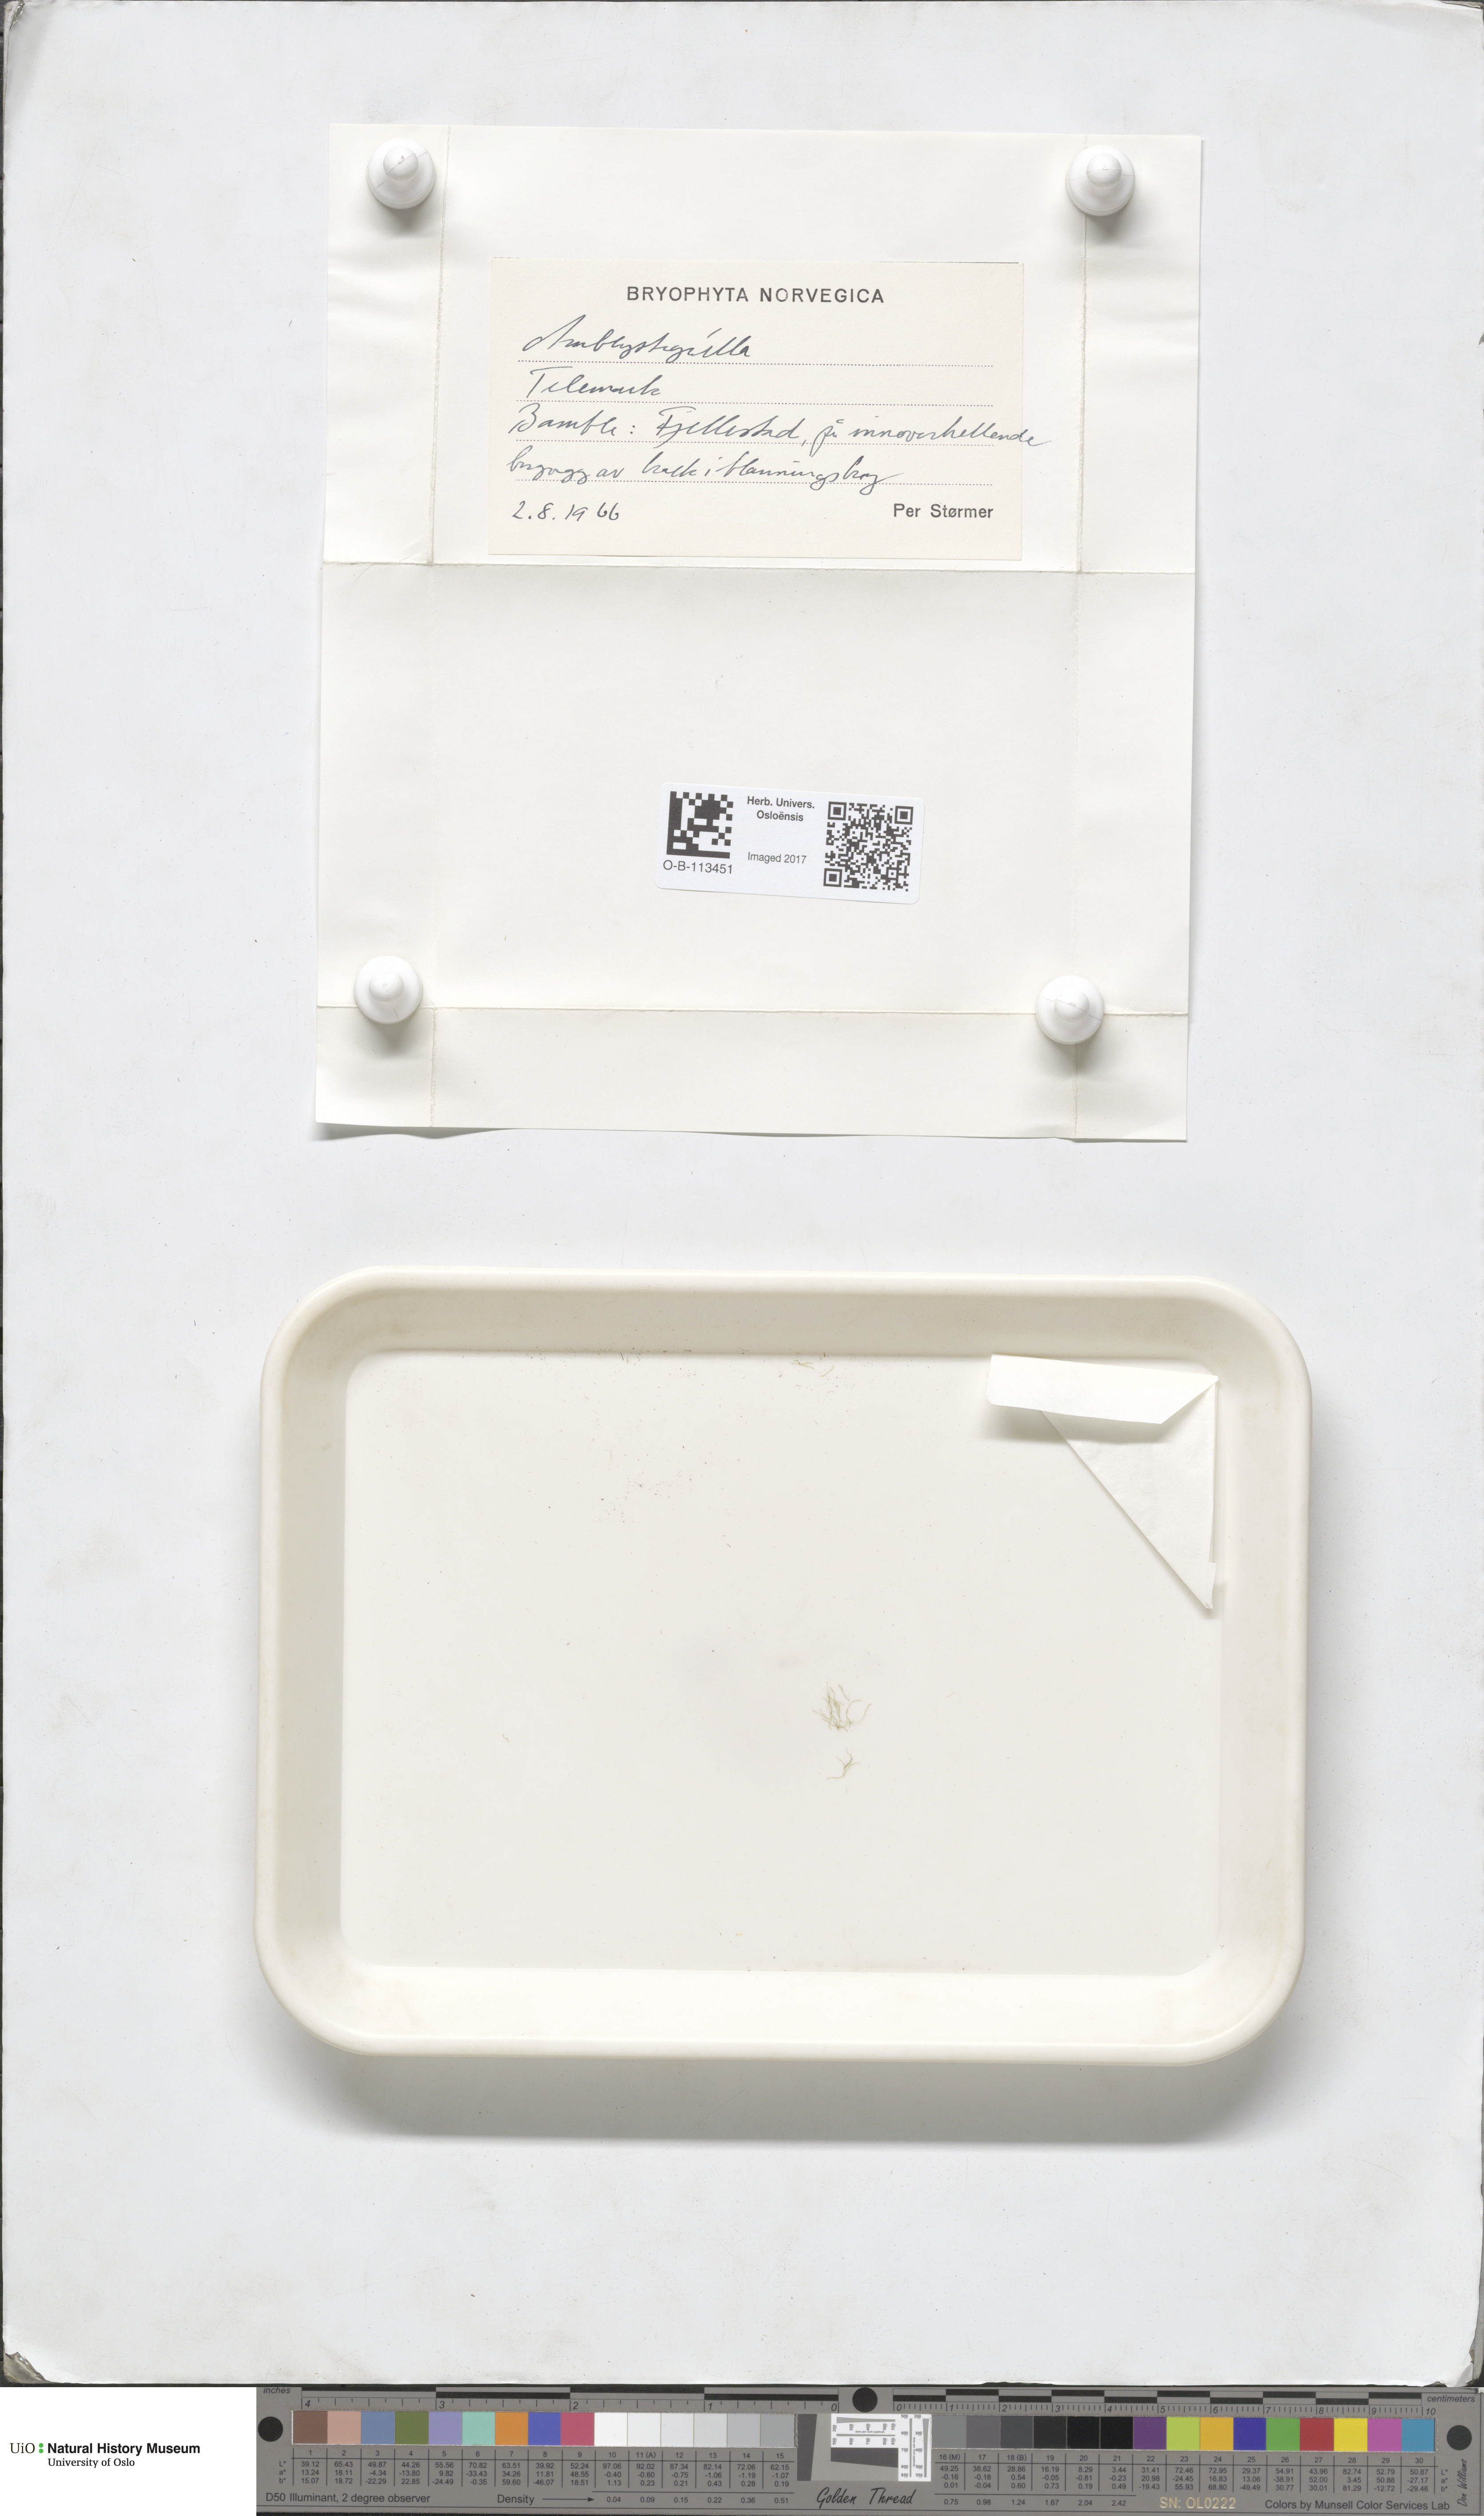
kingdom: Plantae
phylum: Bryophyta
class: Bryopsida
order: Hypnales
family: Amblystegiaceae
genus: Amblystegium
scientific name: Amblystegium
